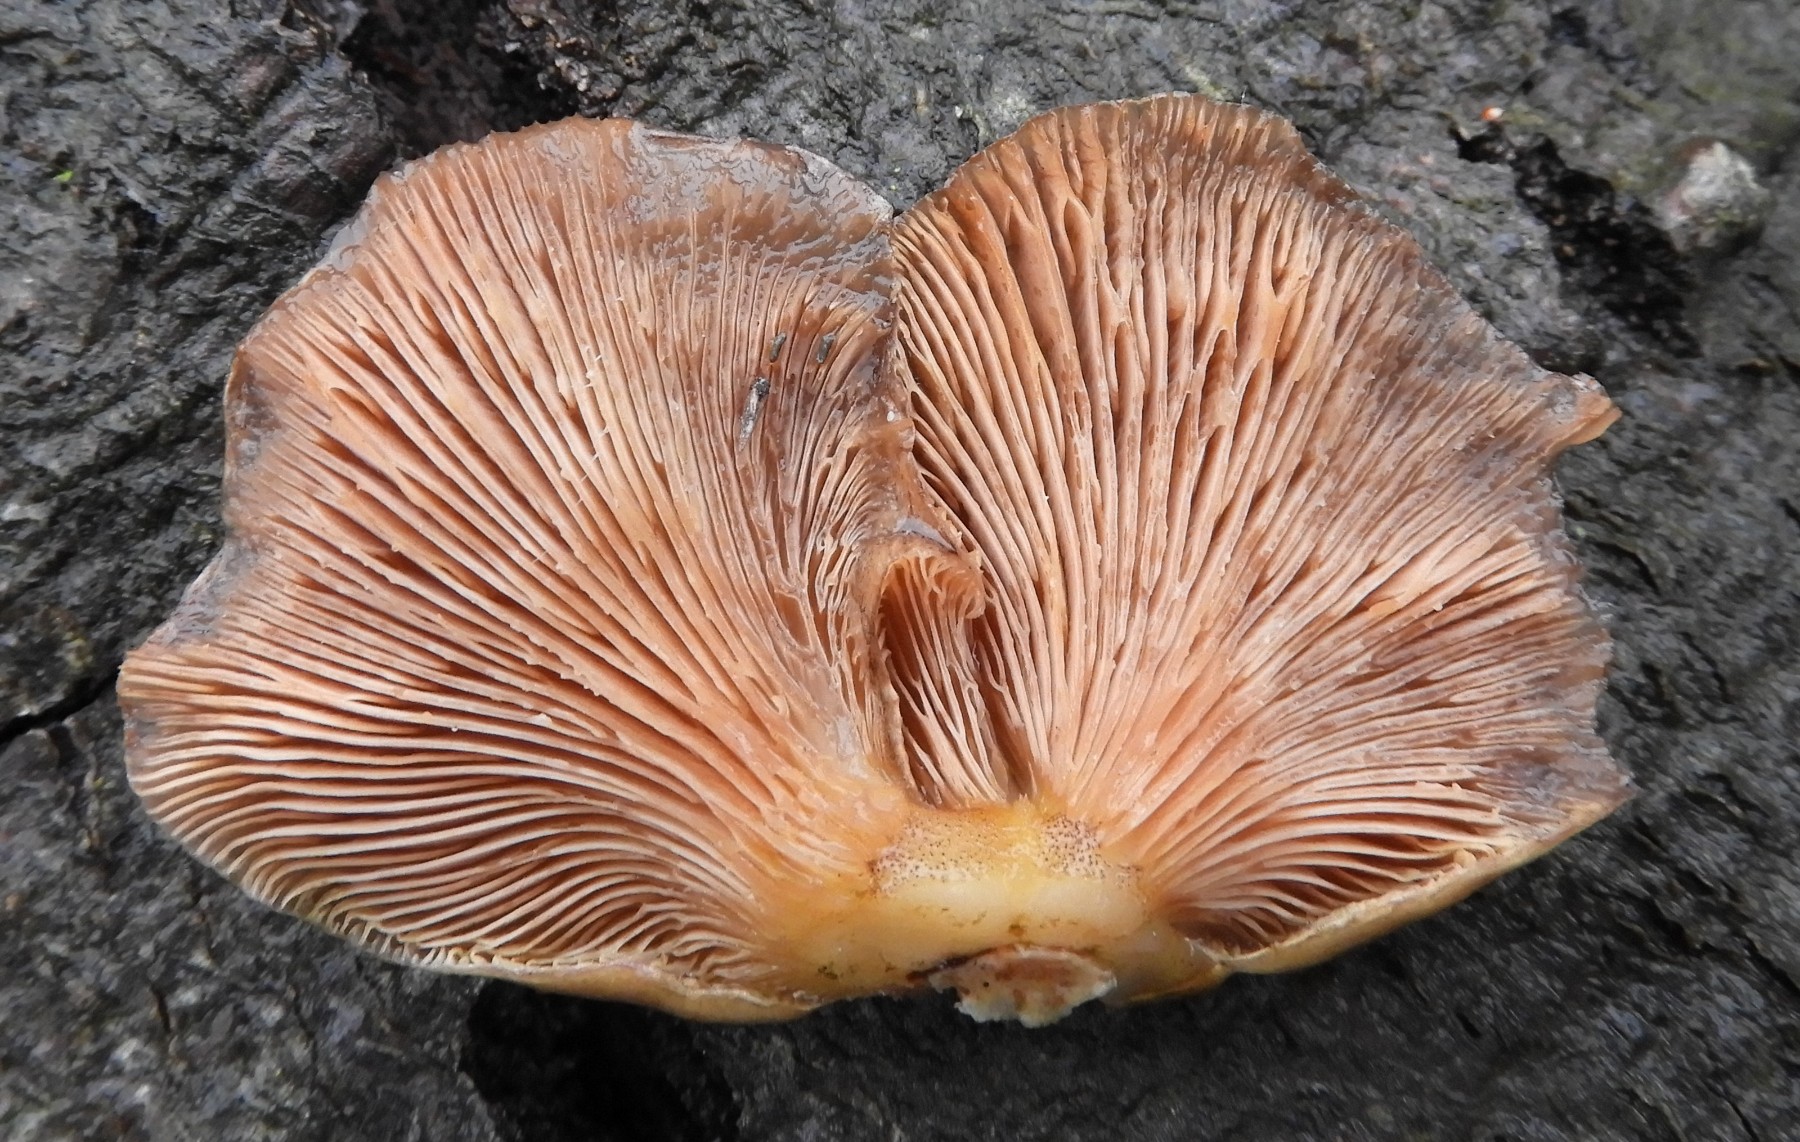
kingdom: Fungi
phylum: Basidiomycota
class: Agaricomycetes
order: Agaricales
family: Sarcomyxaceae
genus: Sarcomyxa
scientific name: Sarcomyxa serotina
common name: gummihat
